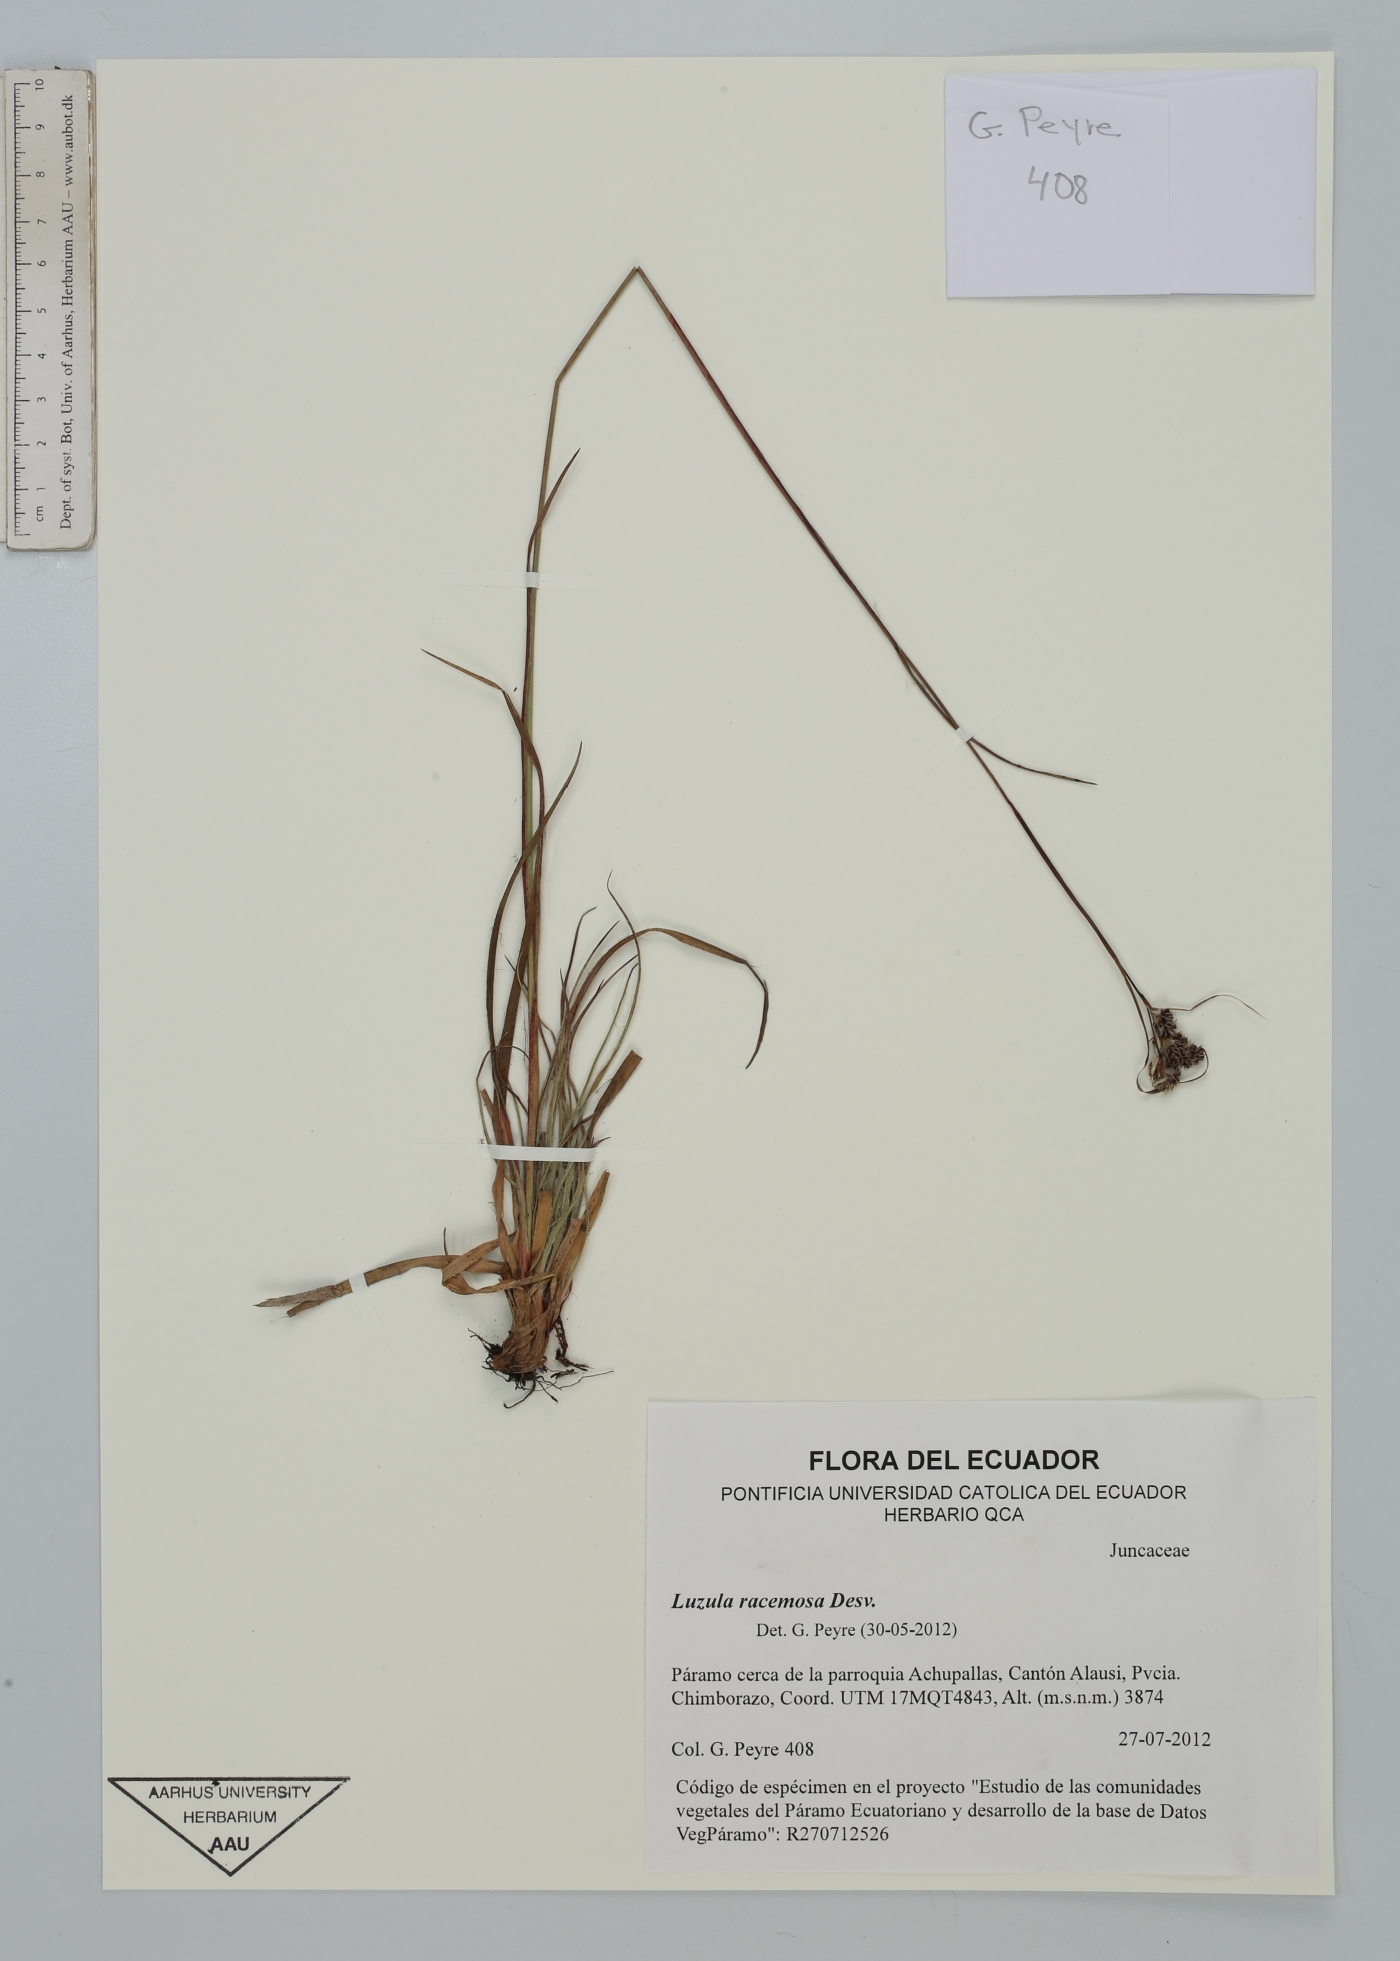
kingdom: Plantae
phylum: Tracheophyta
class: Liliopsida
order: Poales
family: Juncaceae
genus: Luzula
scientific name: Luzula racemosa
